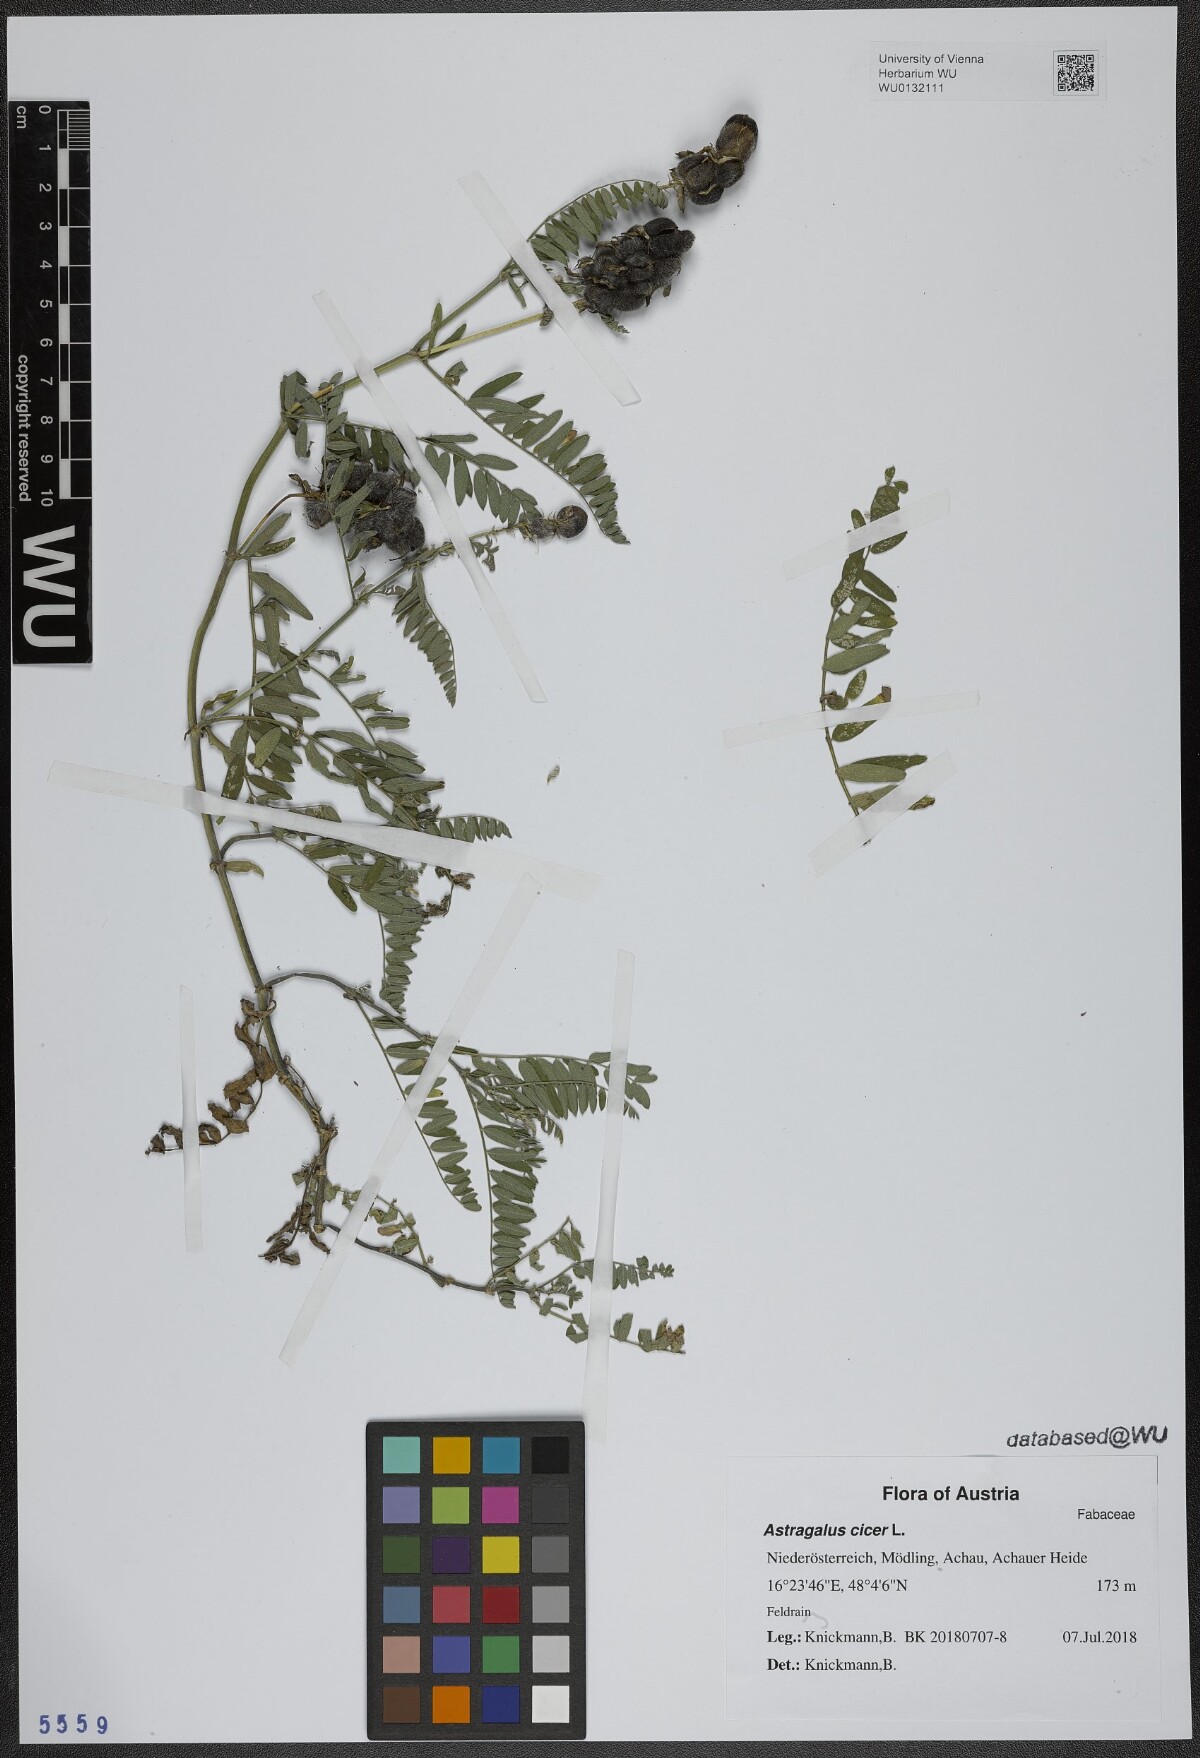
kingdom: Plantae
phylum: Tracheophyta
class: Magnoliopsida
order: Fabales
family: Fabaceae
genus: Astragalus
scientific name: Astragalus cicer
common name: Chick-pea milk-vetch
